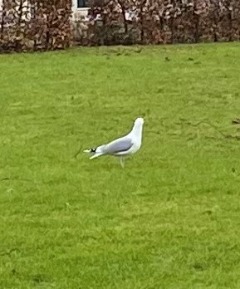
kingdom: Animalia
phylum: Chordata
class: Aves
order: Charadriiformes
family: Laridae
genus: Larus
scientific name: Larus argentatus
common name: Sølvmåge
